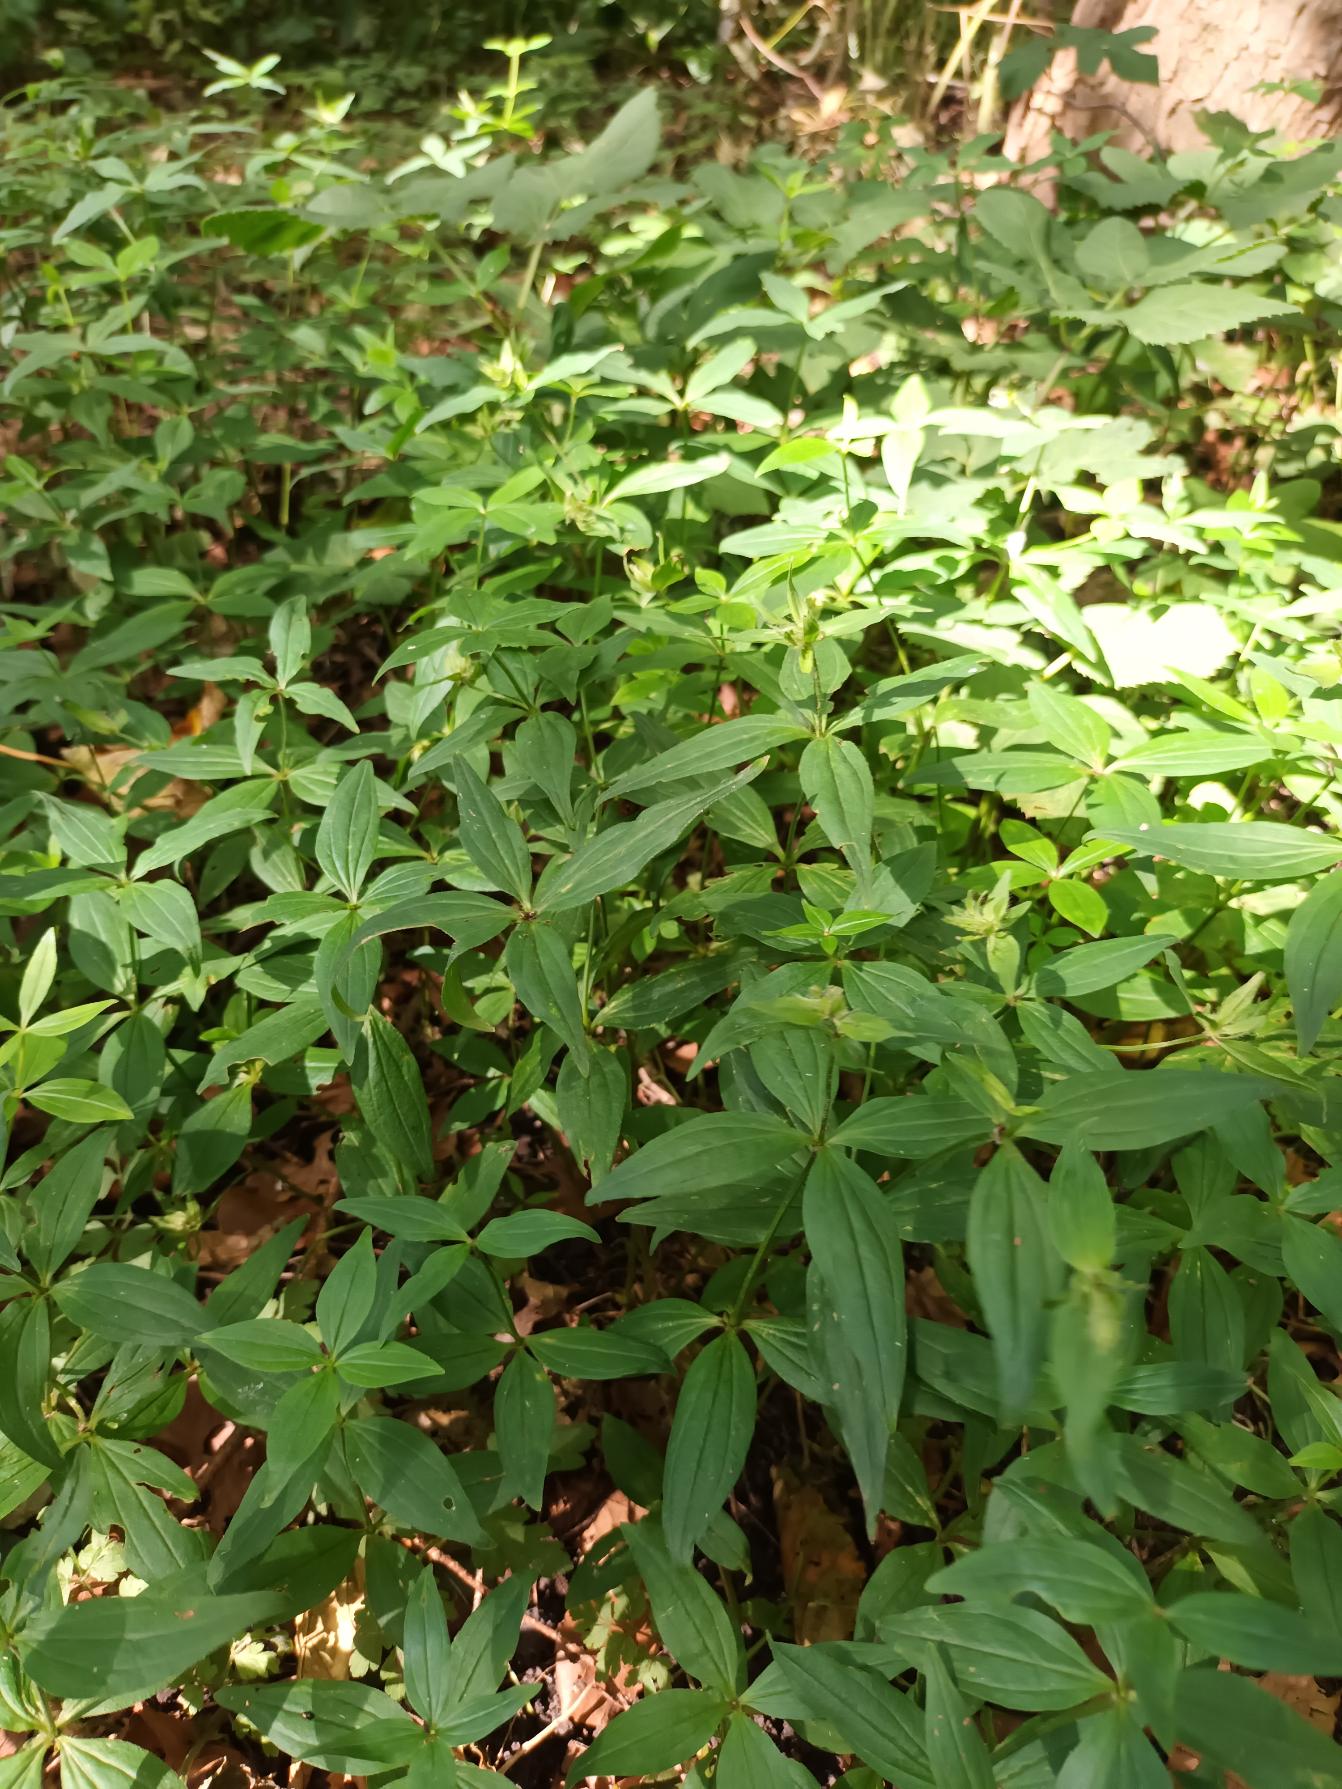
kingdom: Plantae
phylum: Tracheophyta
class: Magnoliopsida
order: Gentianales
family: Rubiaceae
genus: Asperula
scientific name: Asperula taurina
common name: Kaukasisk mysike
